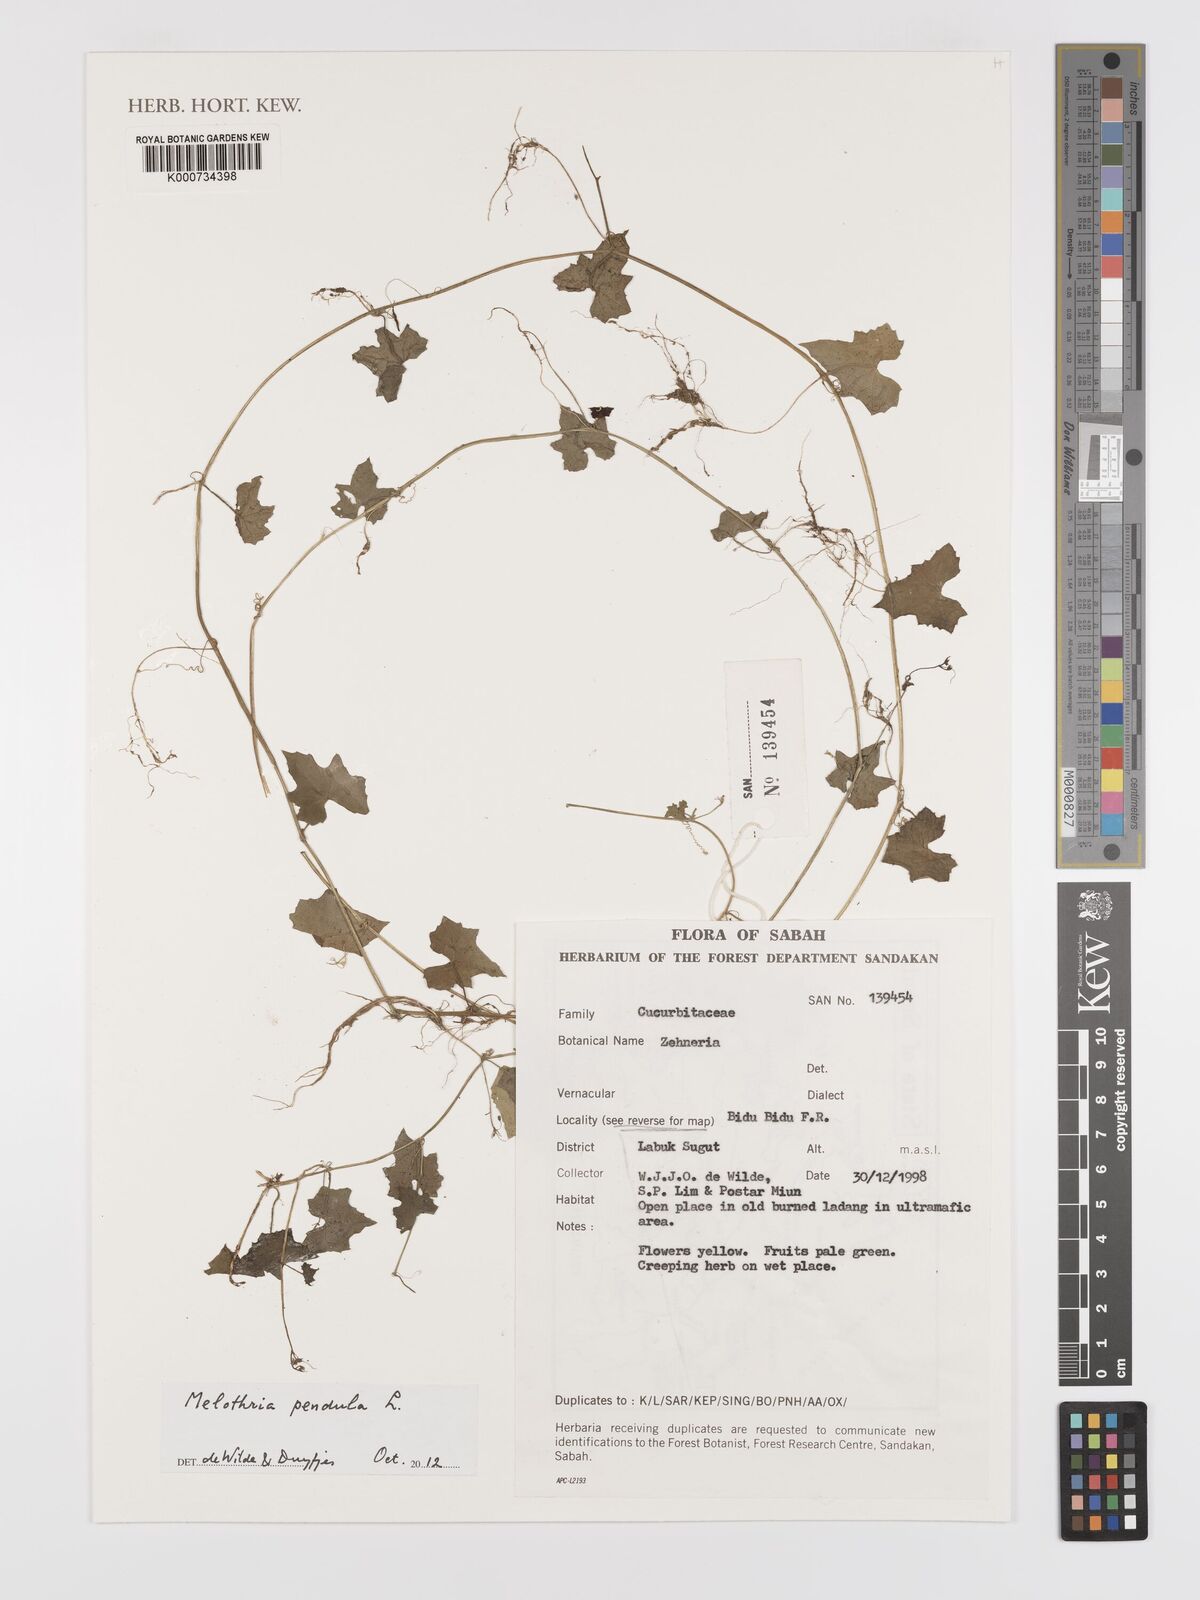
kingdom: Plantae
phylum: Tracheophyta
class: Magnoliopsida
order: Cucurbitales
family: Cucurbitaceae
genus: Melothria
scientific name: Melothria pendula
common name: Creeping-cucumber
